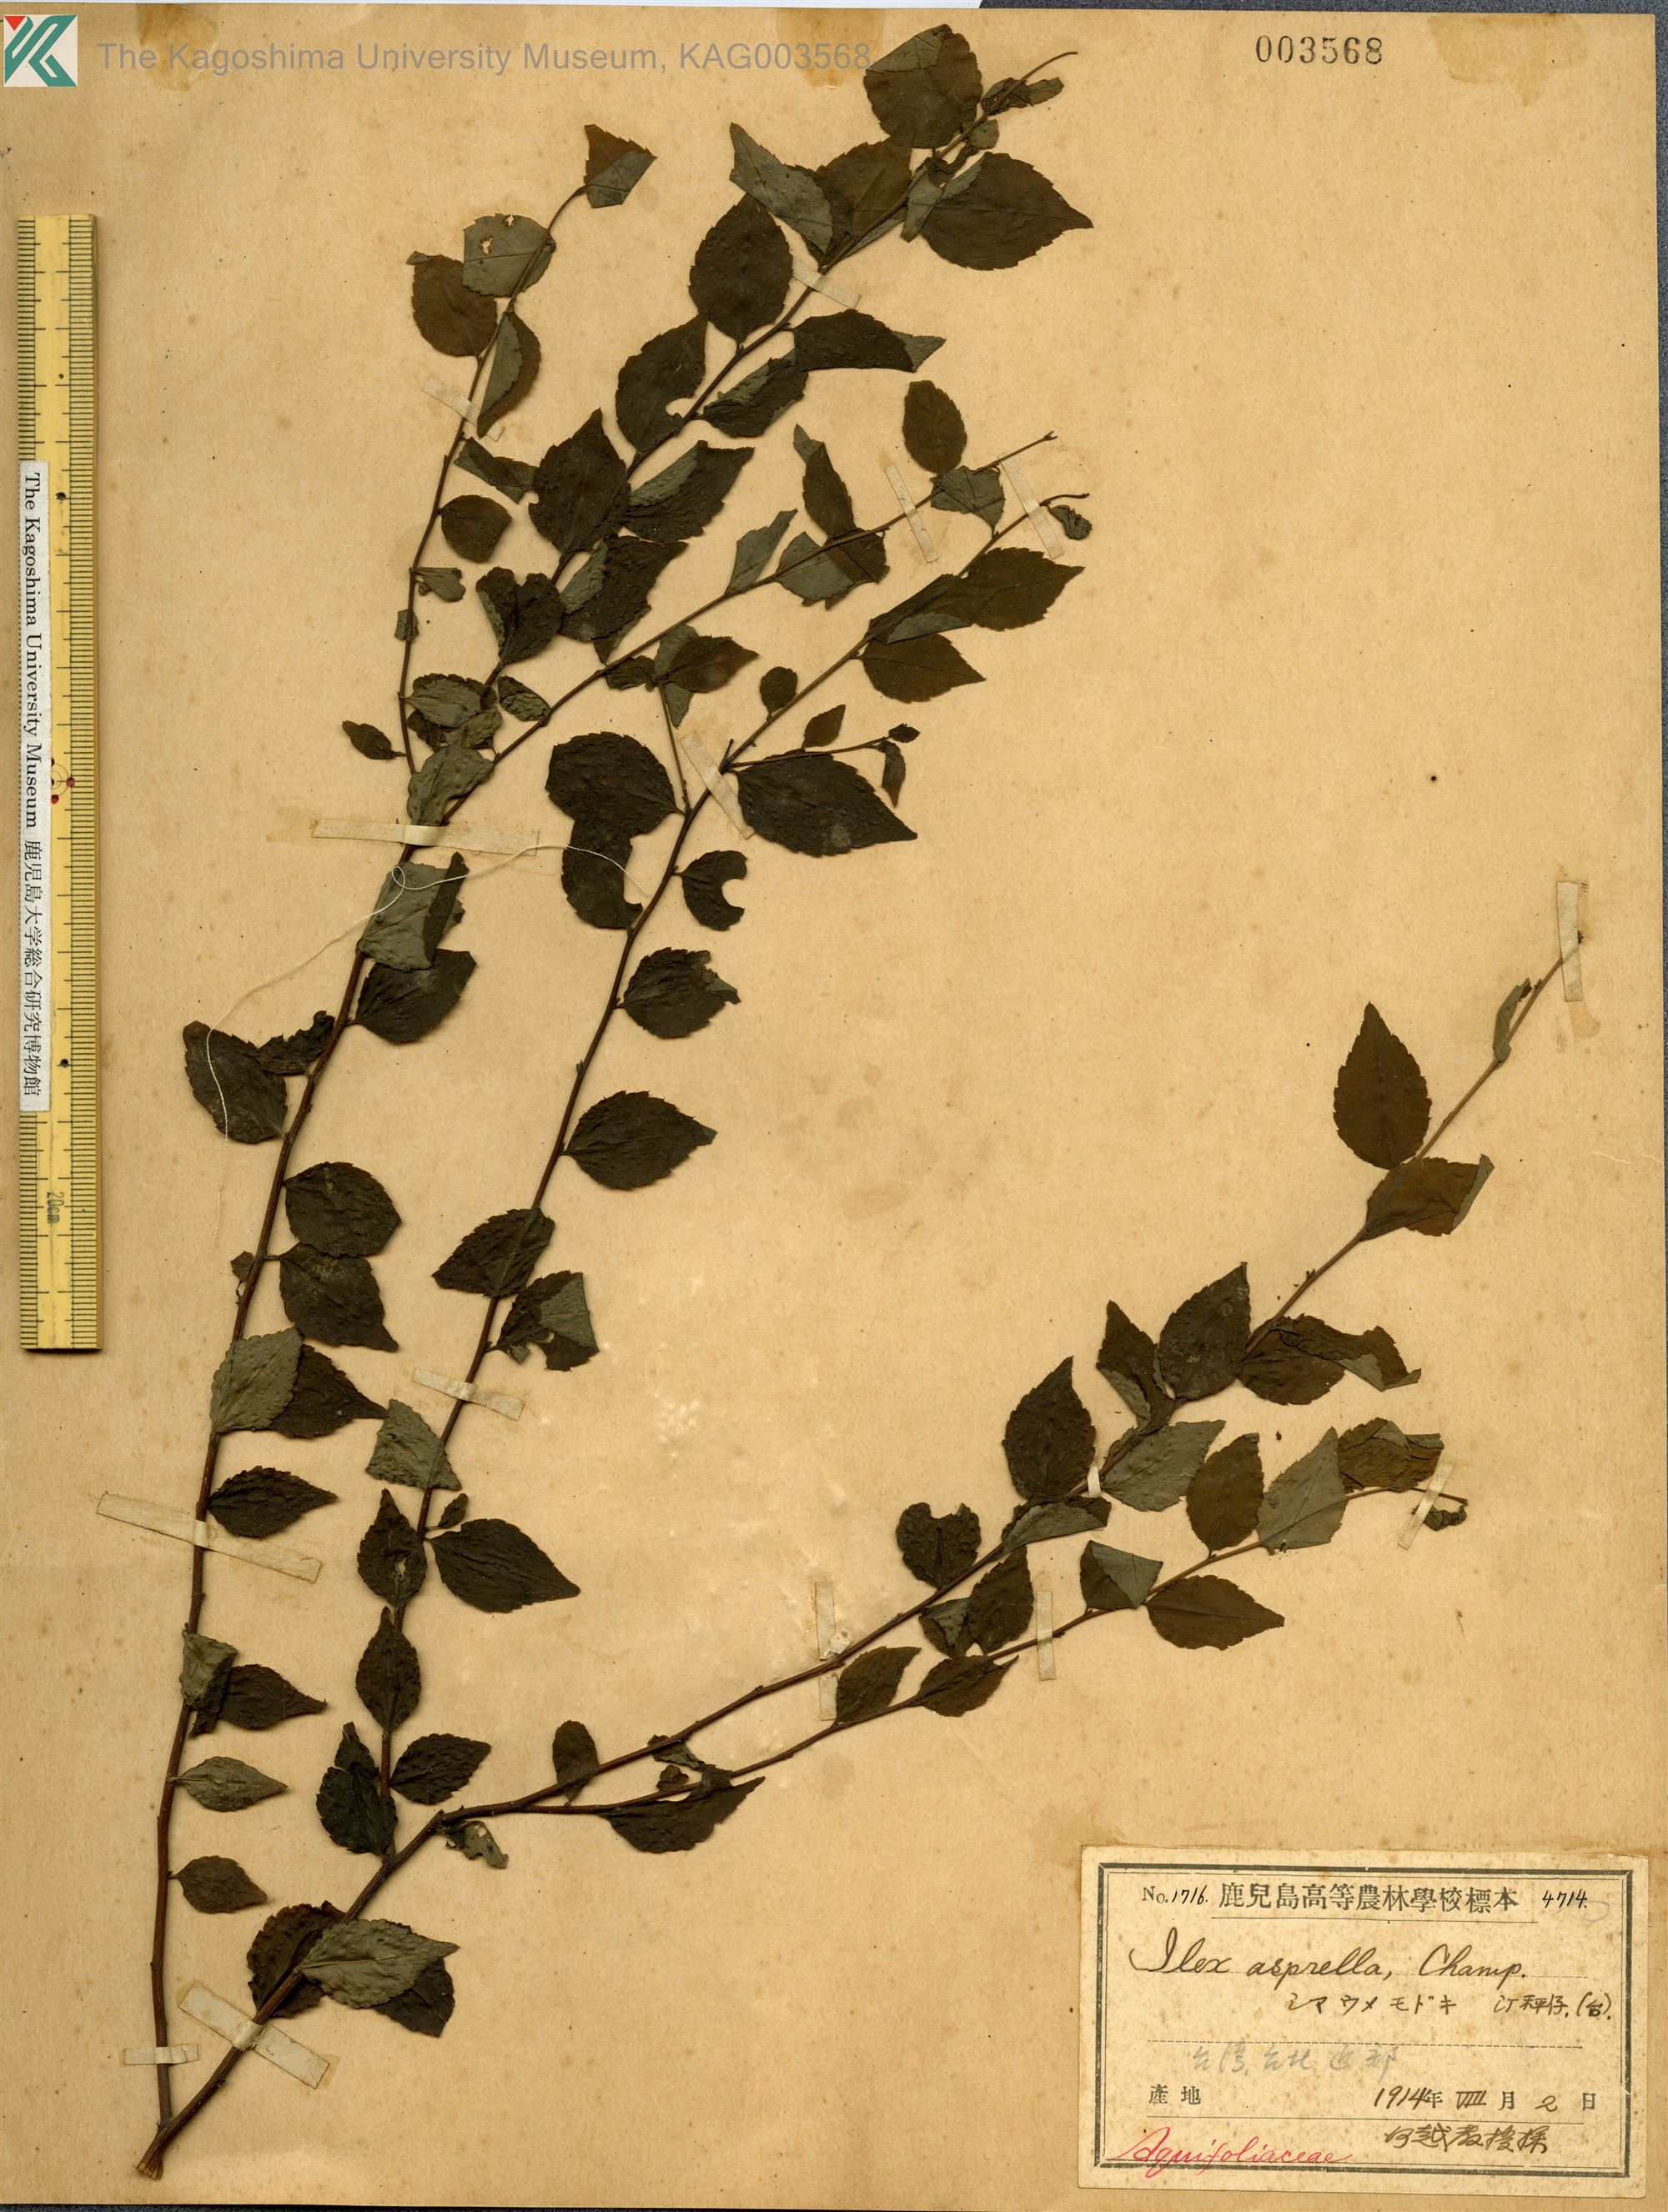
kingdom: Plantae
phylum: Tracheophyta
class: Magnoliopsida
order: Aquifoliales
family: Aquifoliaceae
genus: Ilex
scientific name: Ilex asprella
